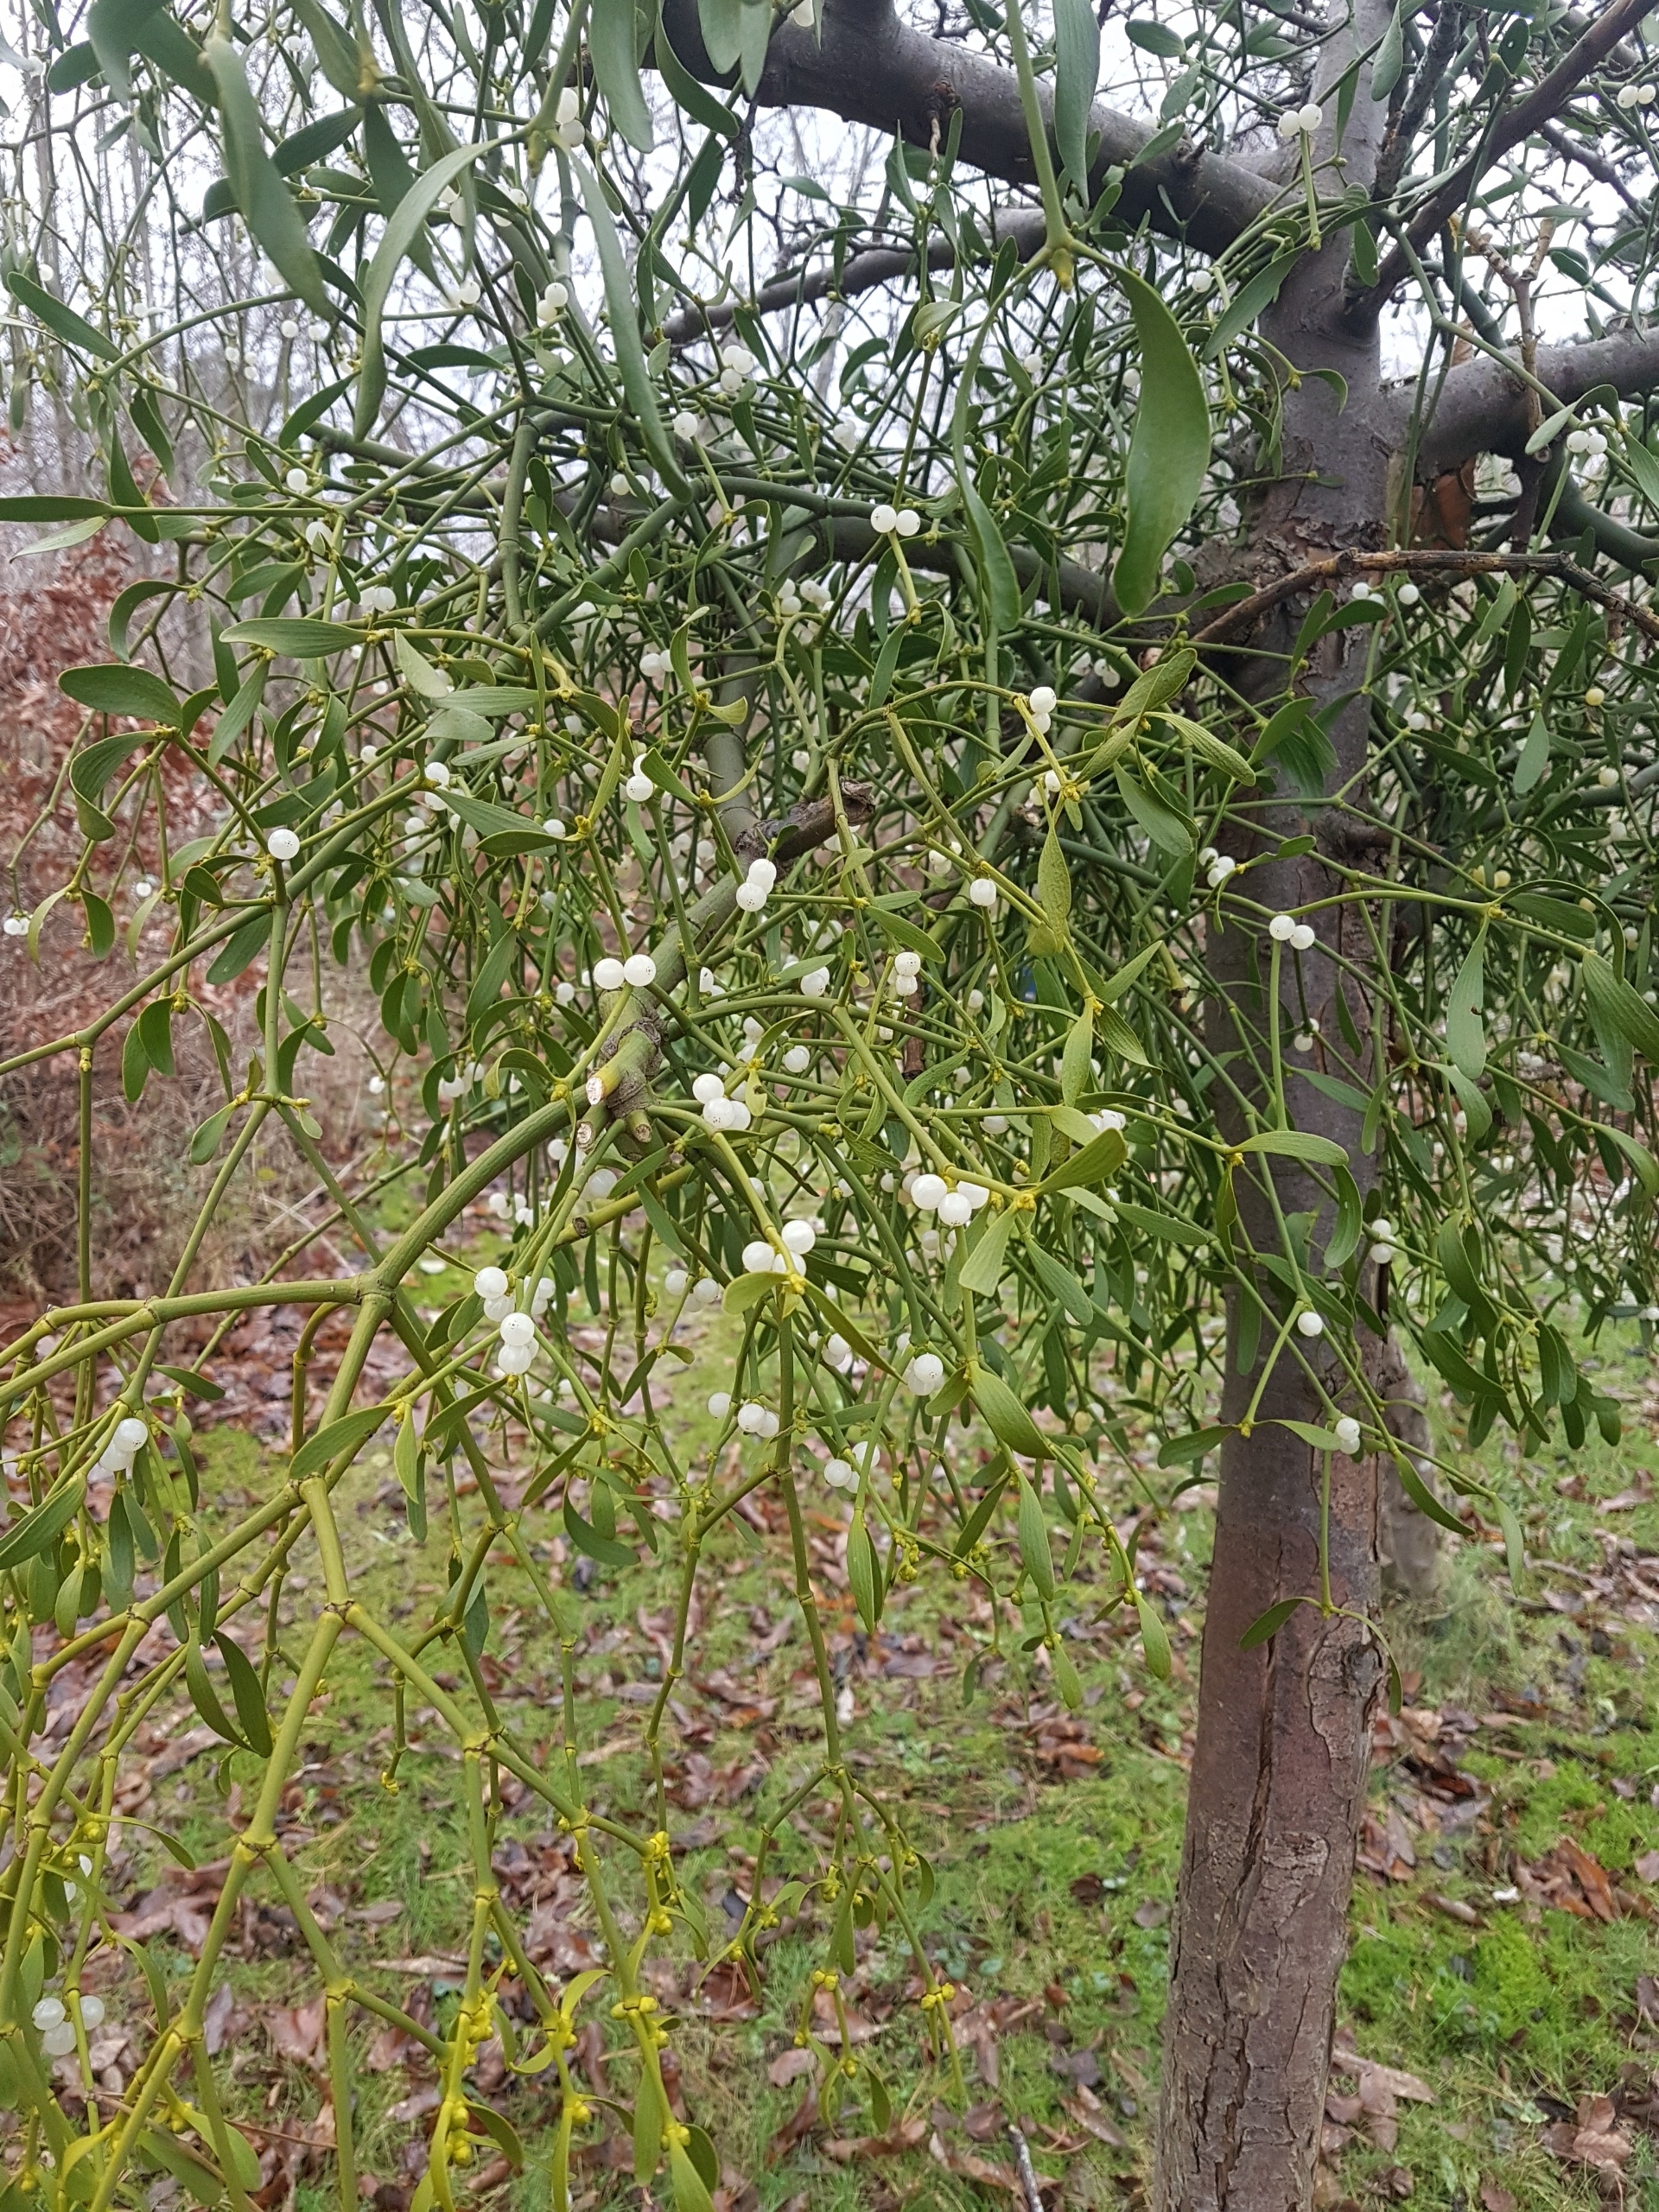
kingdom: Plantae
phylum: Tracheophyta
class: Magnoliopsida
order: Santalales
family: Viscaceae
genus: Viscum
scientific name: Viscum album
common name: Mistelten
